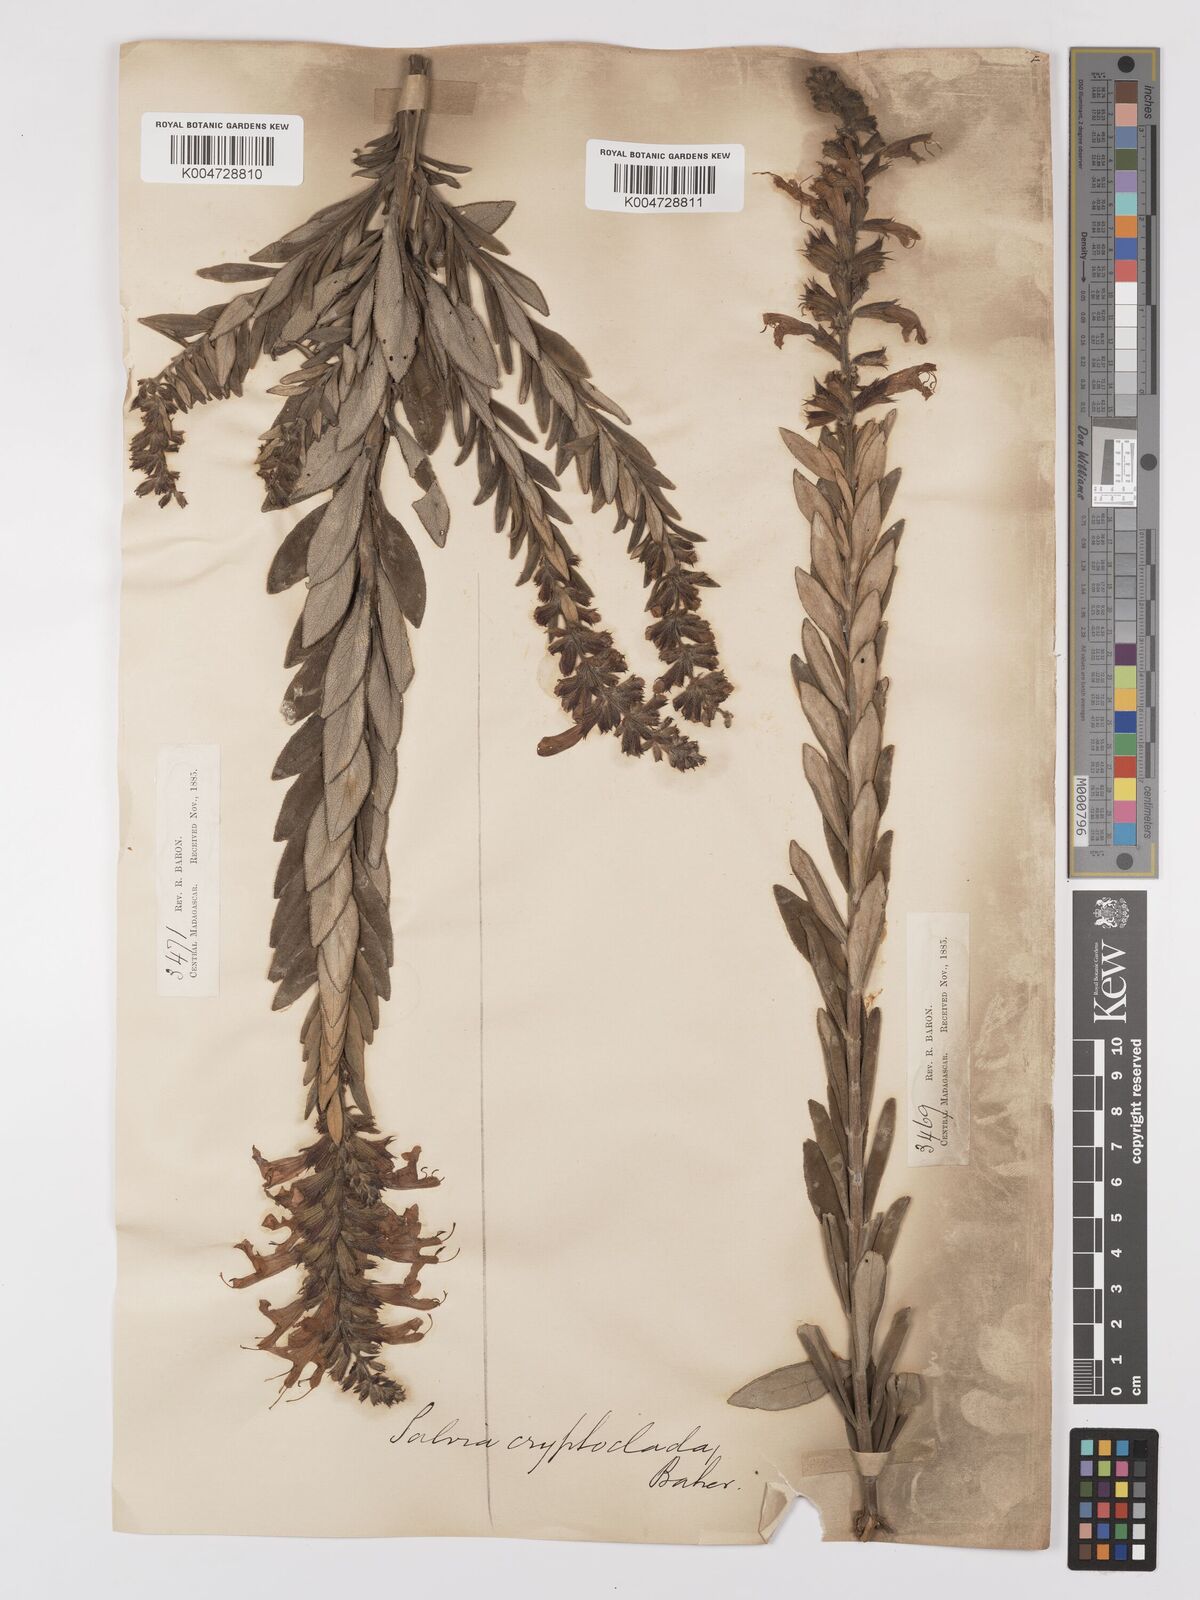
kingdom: Plantae
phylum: Tracheophyta
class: Magnoliopsida
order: Lamiales
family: Lamiaceae
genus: Salvia
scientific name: Salvia cryptoclada
